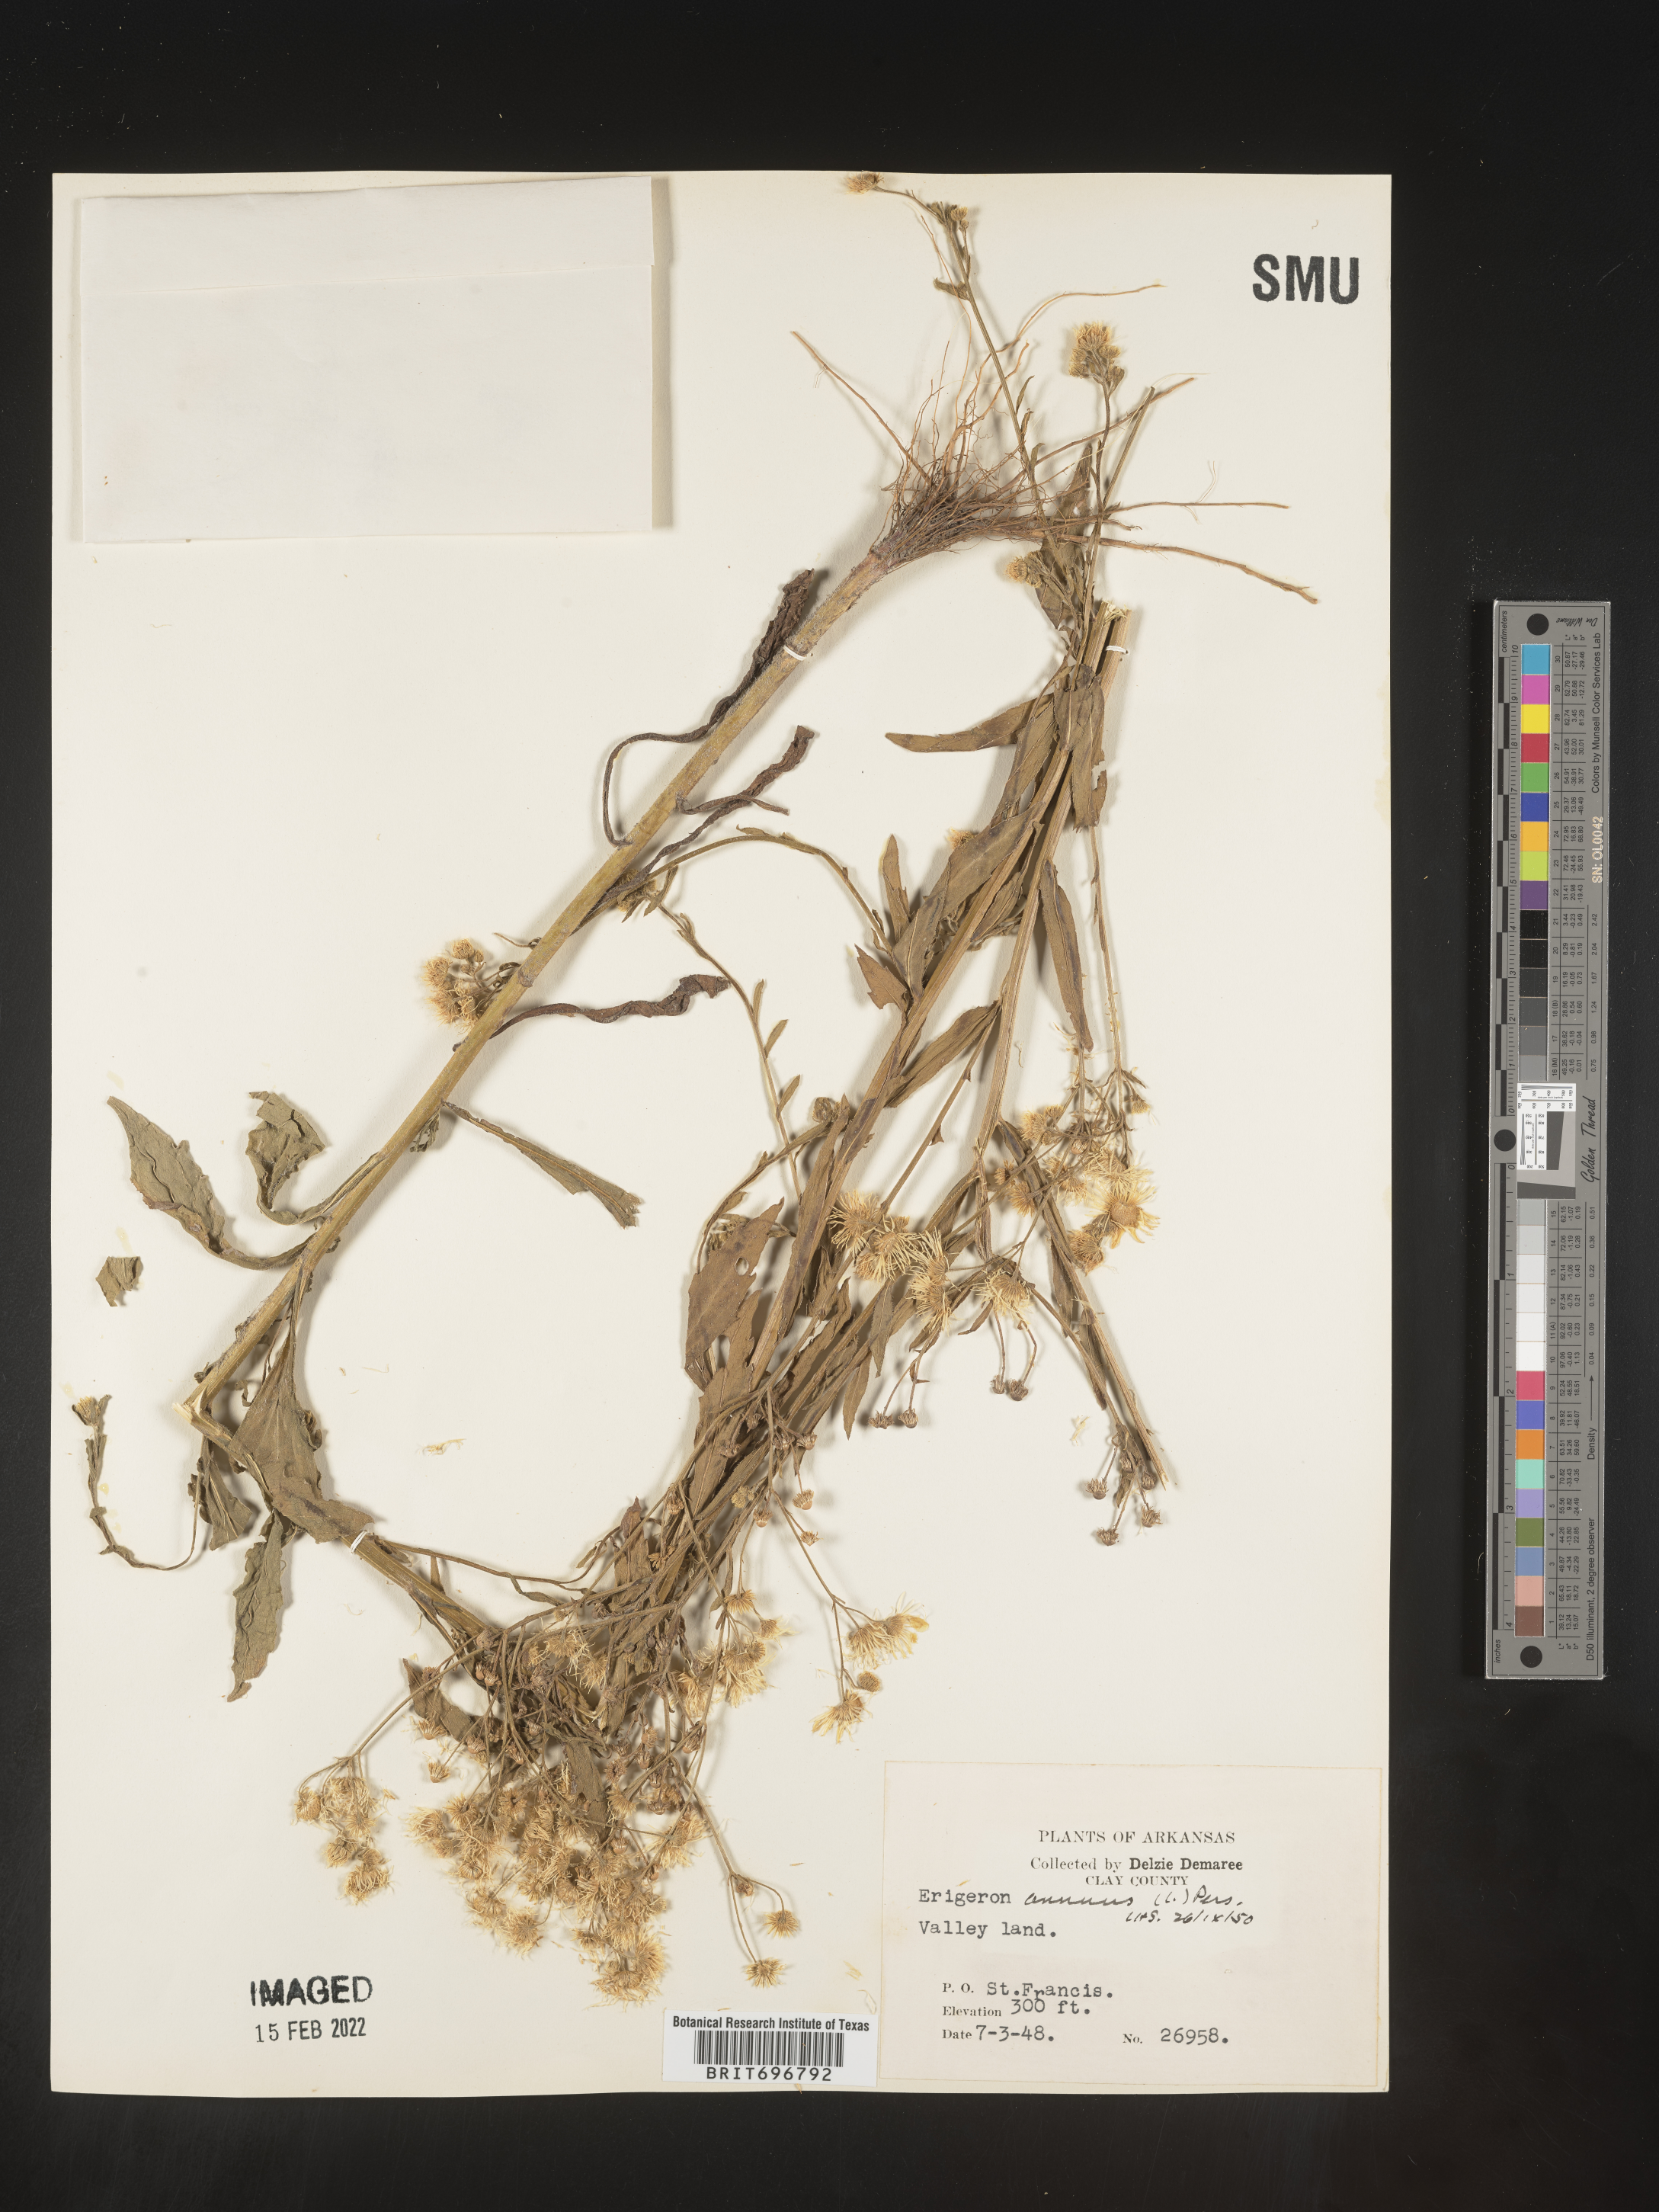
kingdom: Plantae
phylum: Tracheophyta
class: Magnoliopsida
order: Asterales
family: Asteraceae
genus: Erigeron
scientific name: Erigeron annuus
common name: Tall fleabane
